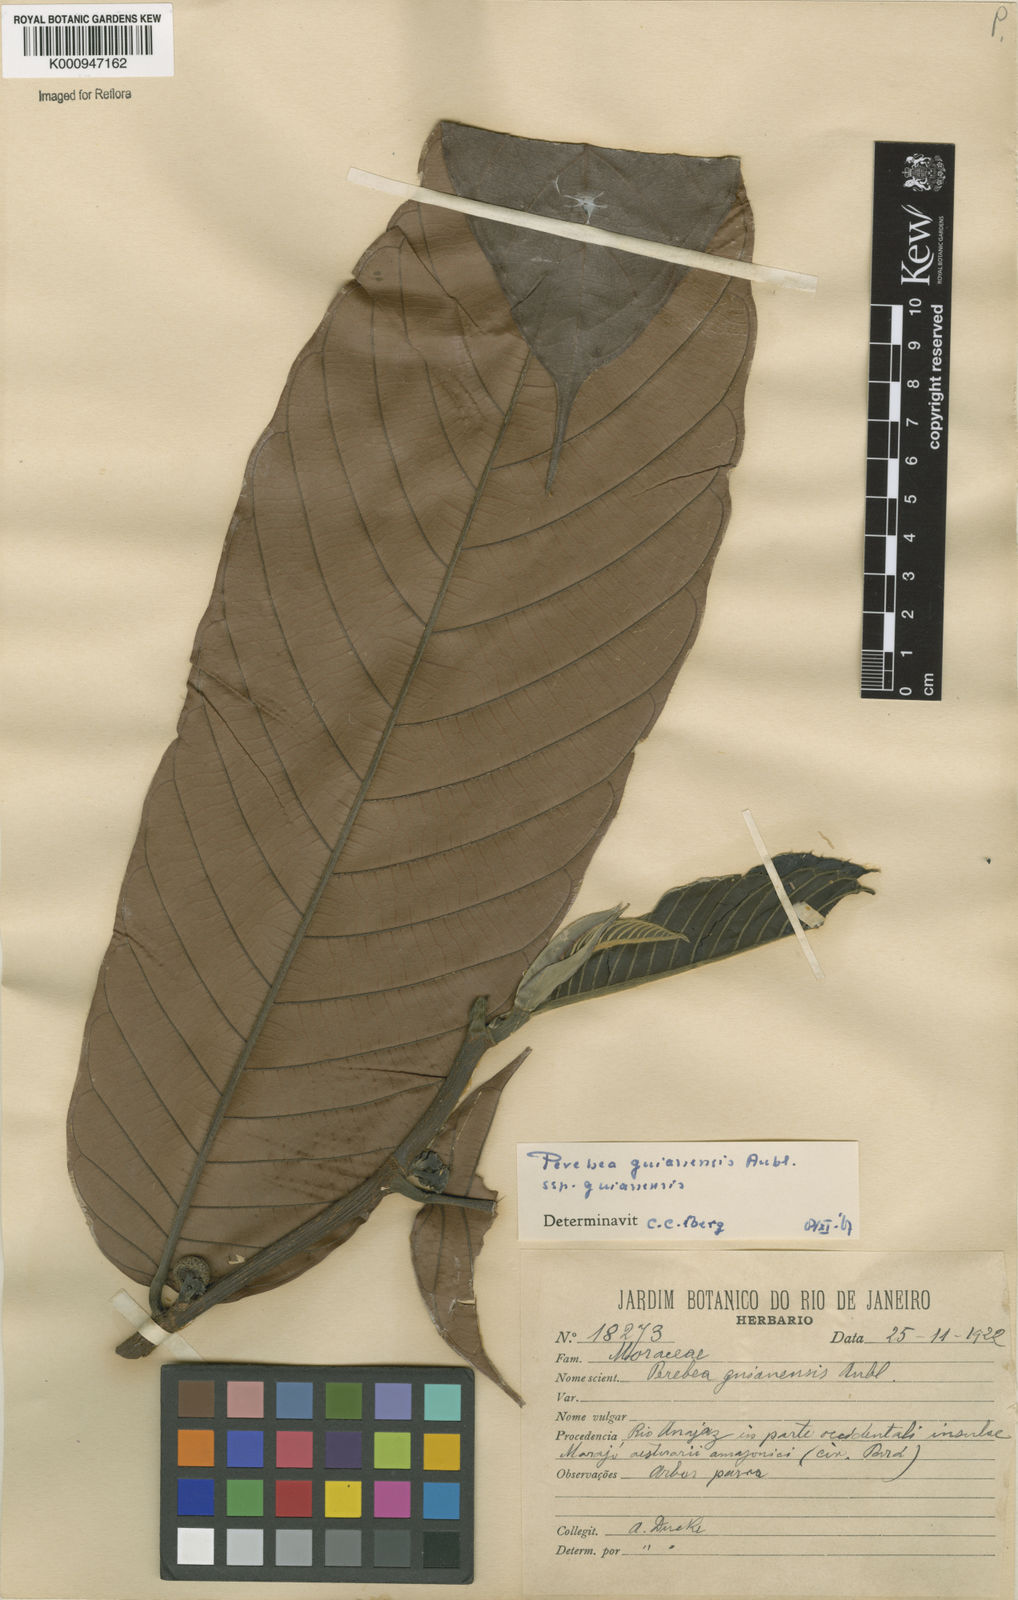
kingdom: Plantae
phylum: Tracheophyta
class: Magnoliopsida
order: Rosales
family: Moraceae
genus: Perebea
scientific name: Perebea guianensis
